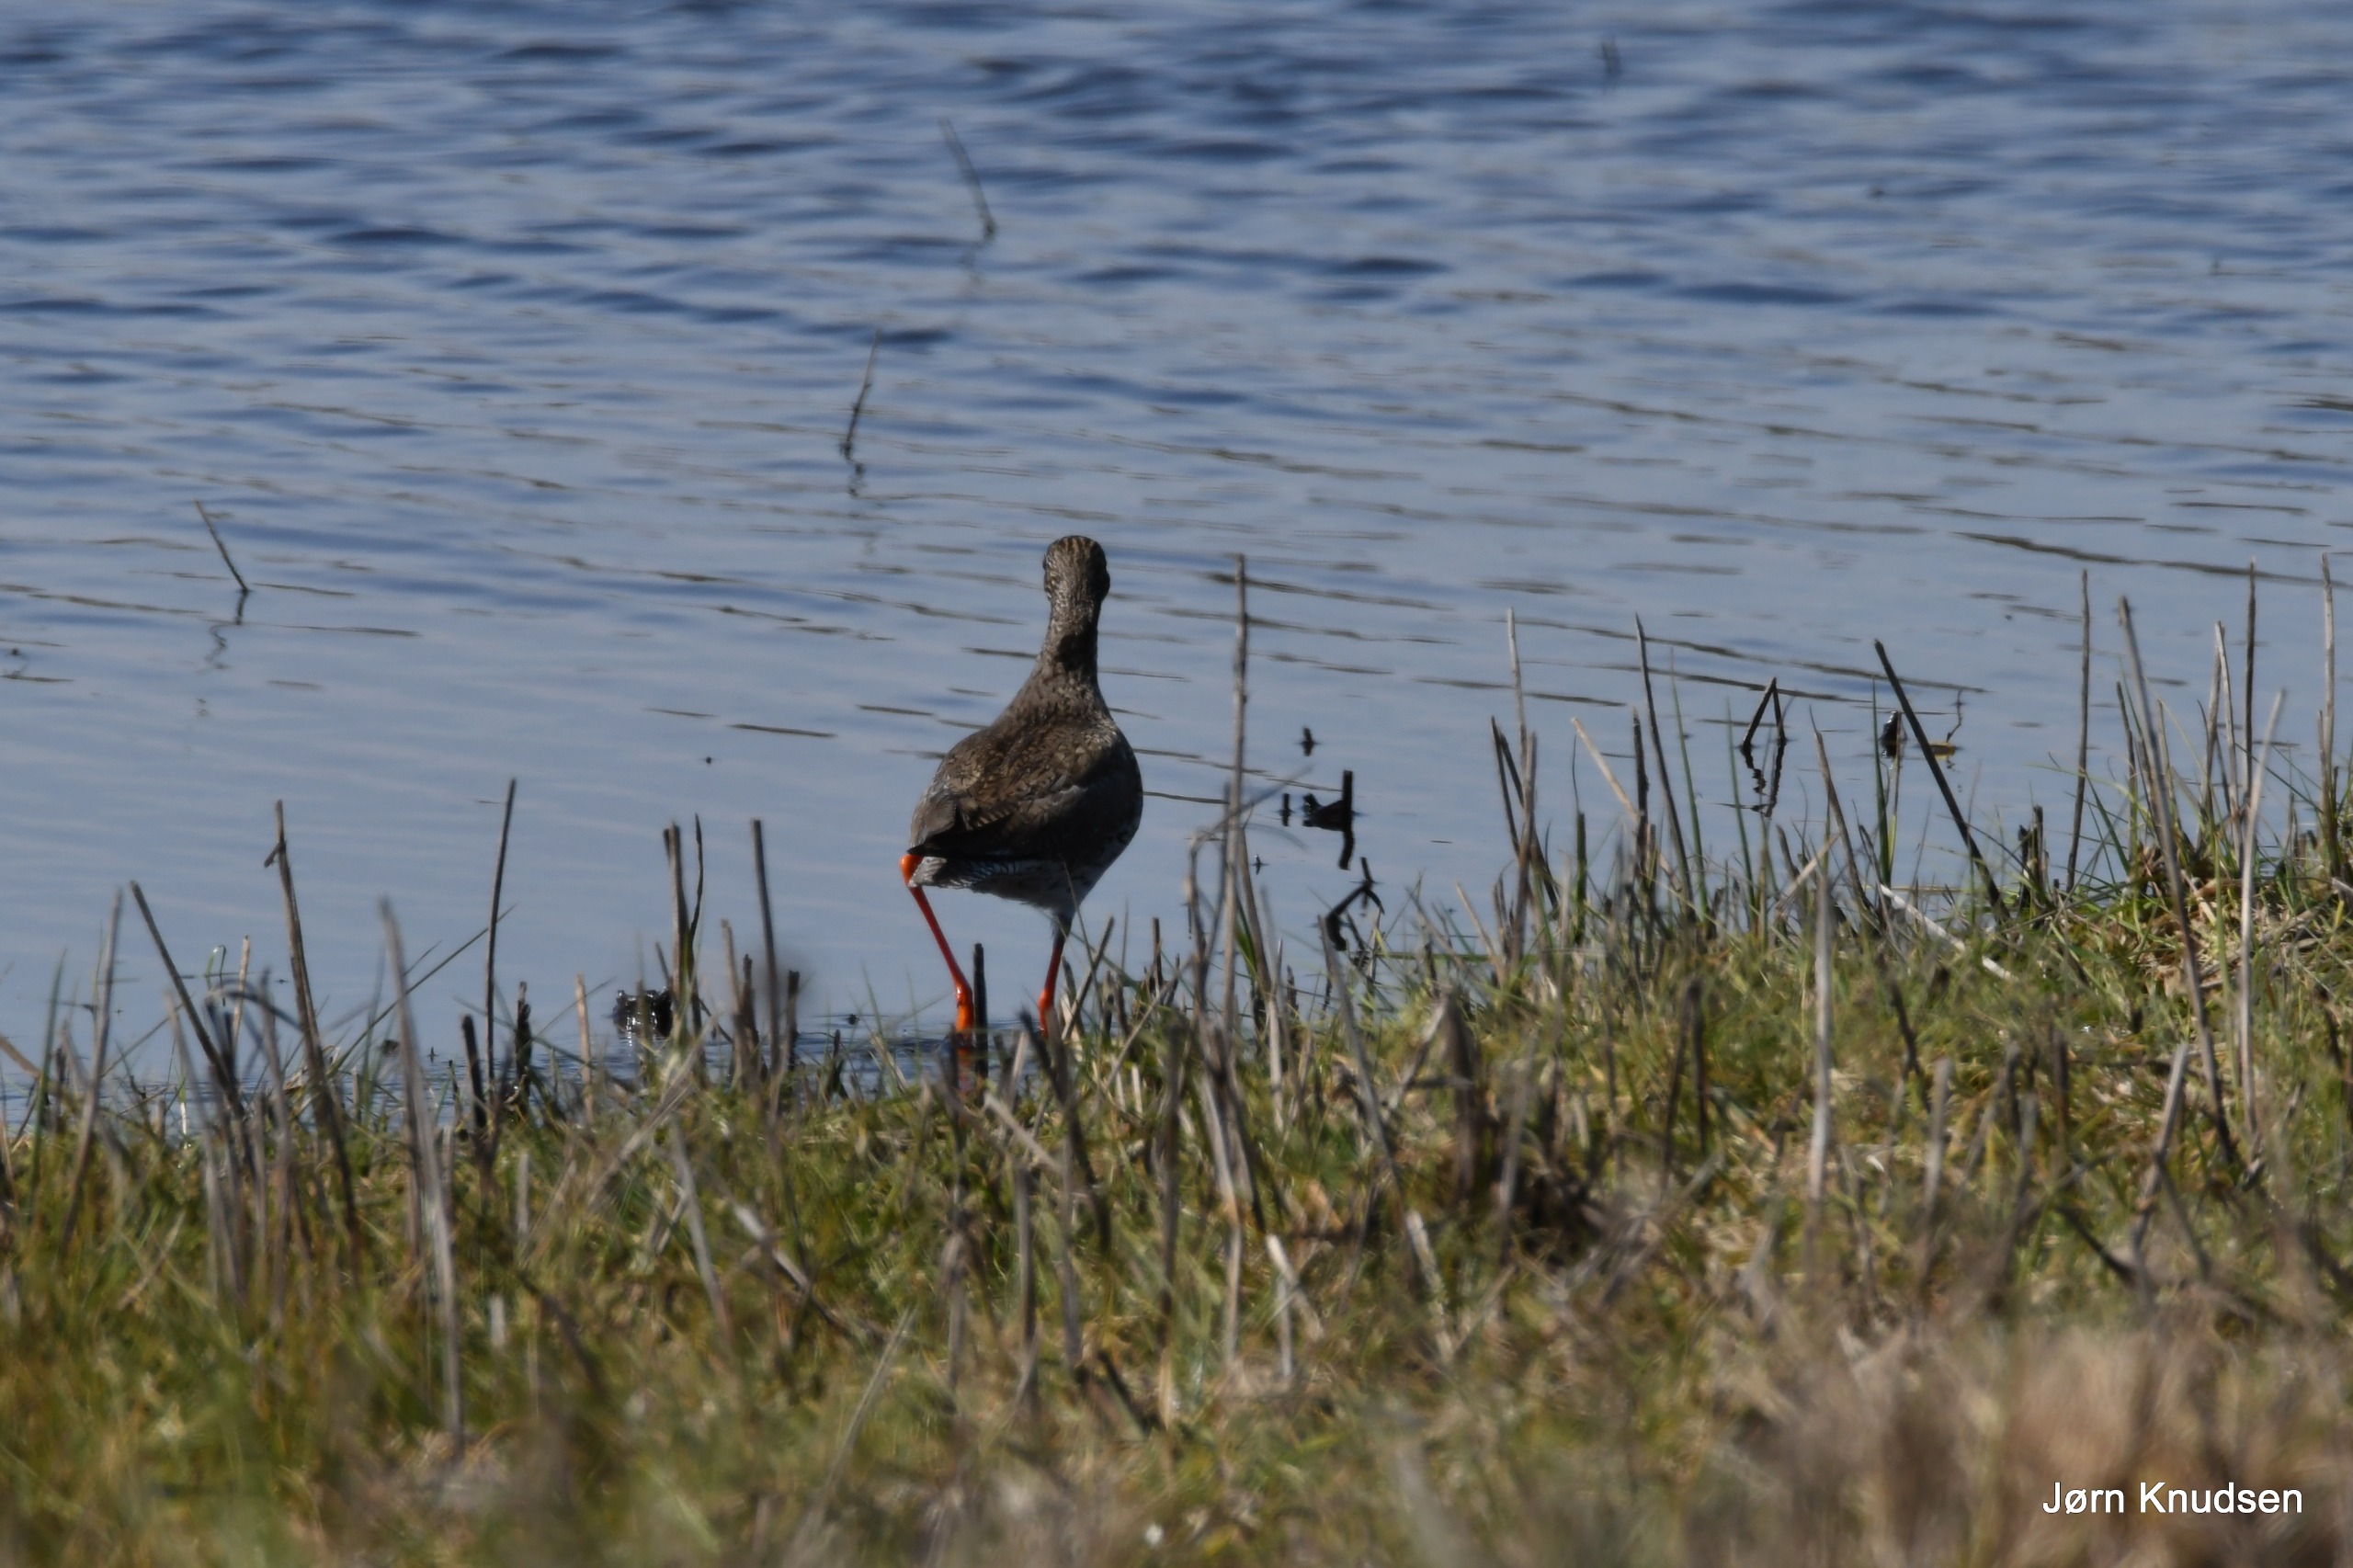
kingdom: Animalia
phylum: Chordata
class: Aves
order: Charadriiformes
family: Scolopacidae
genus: Tringa
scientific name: Tringa totanus
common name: Rødben
